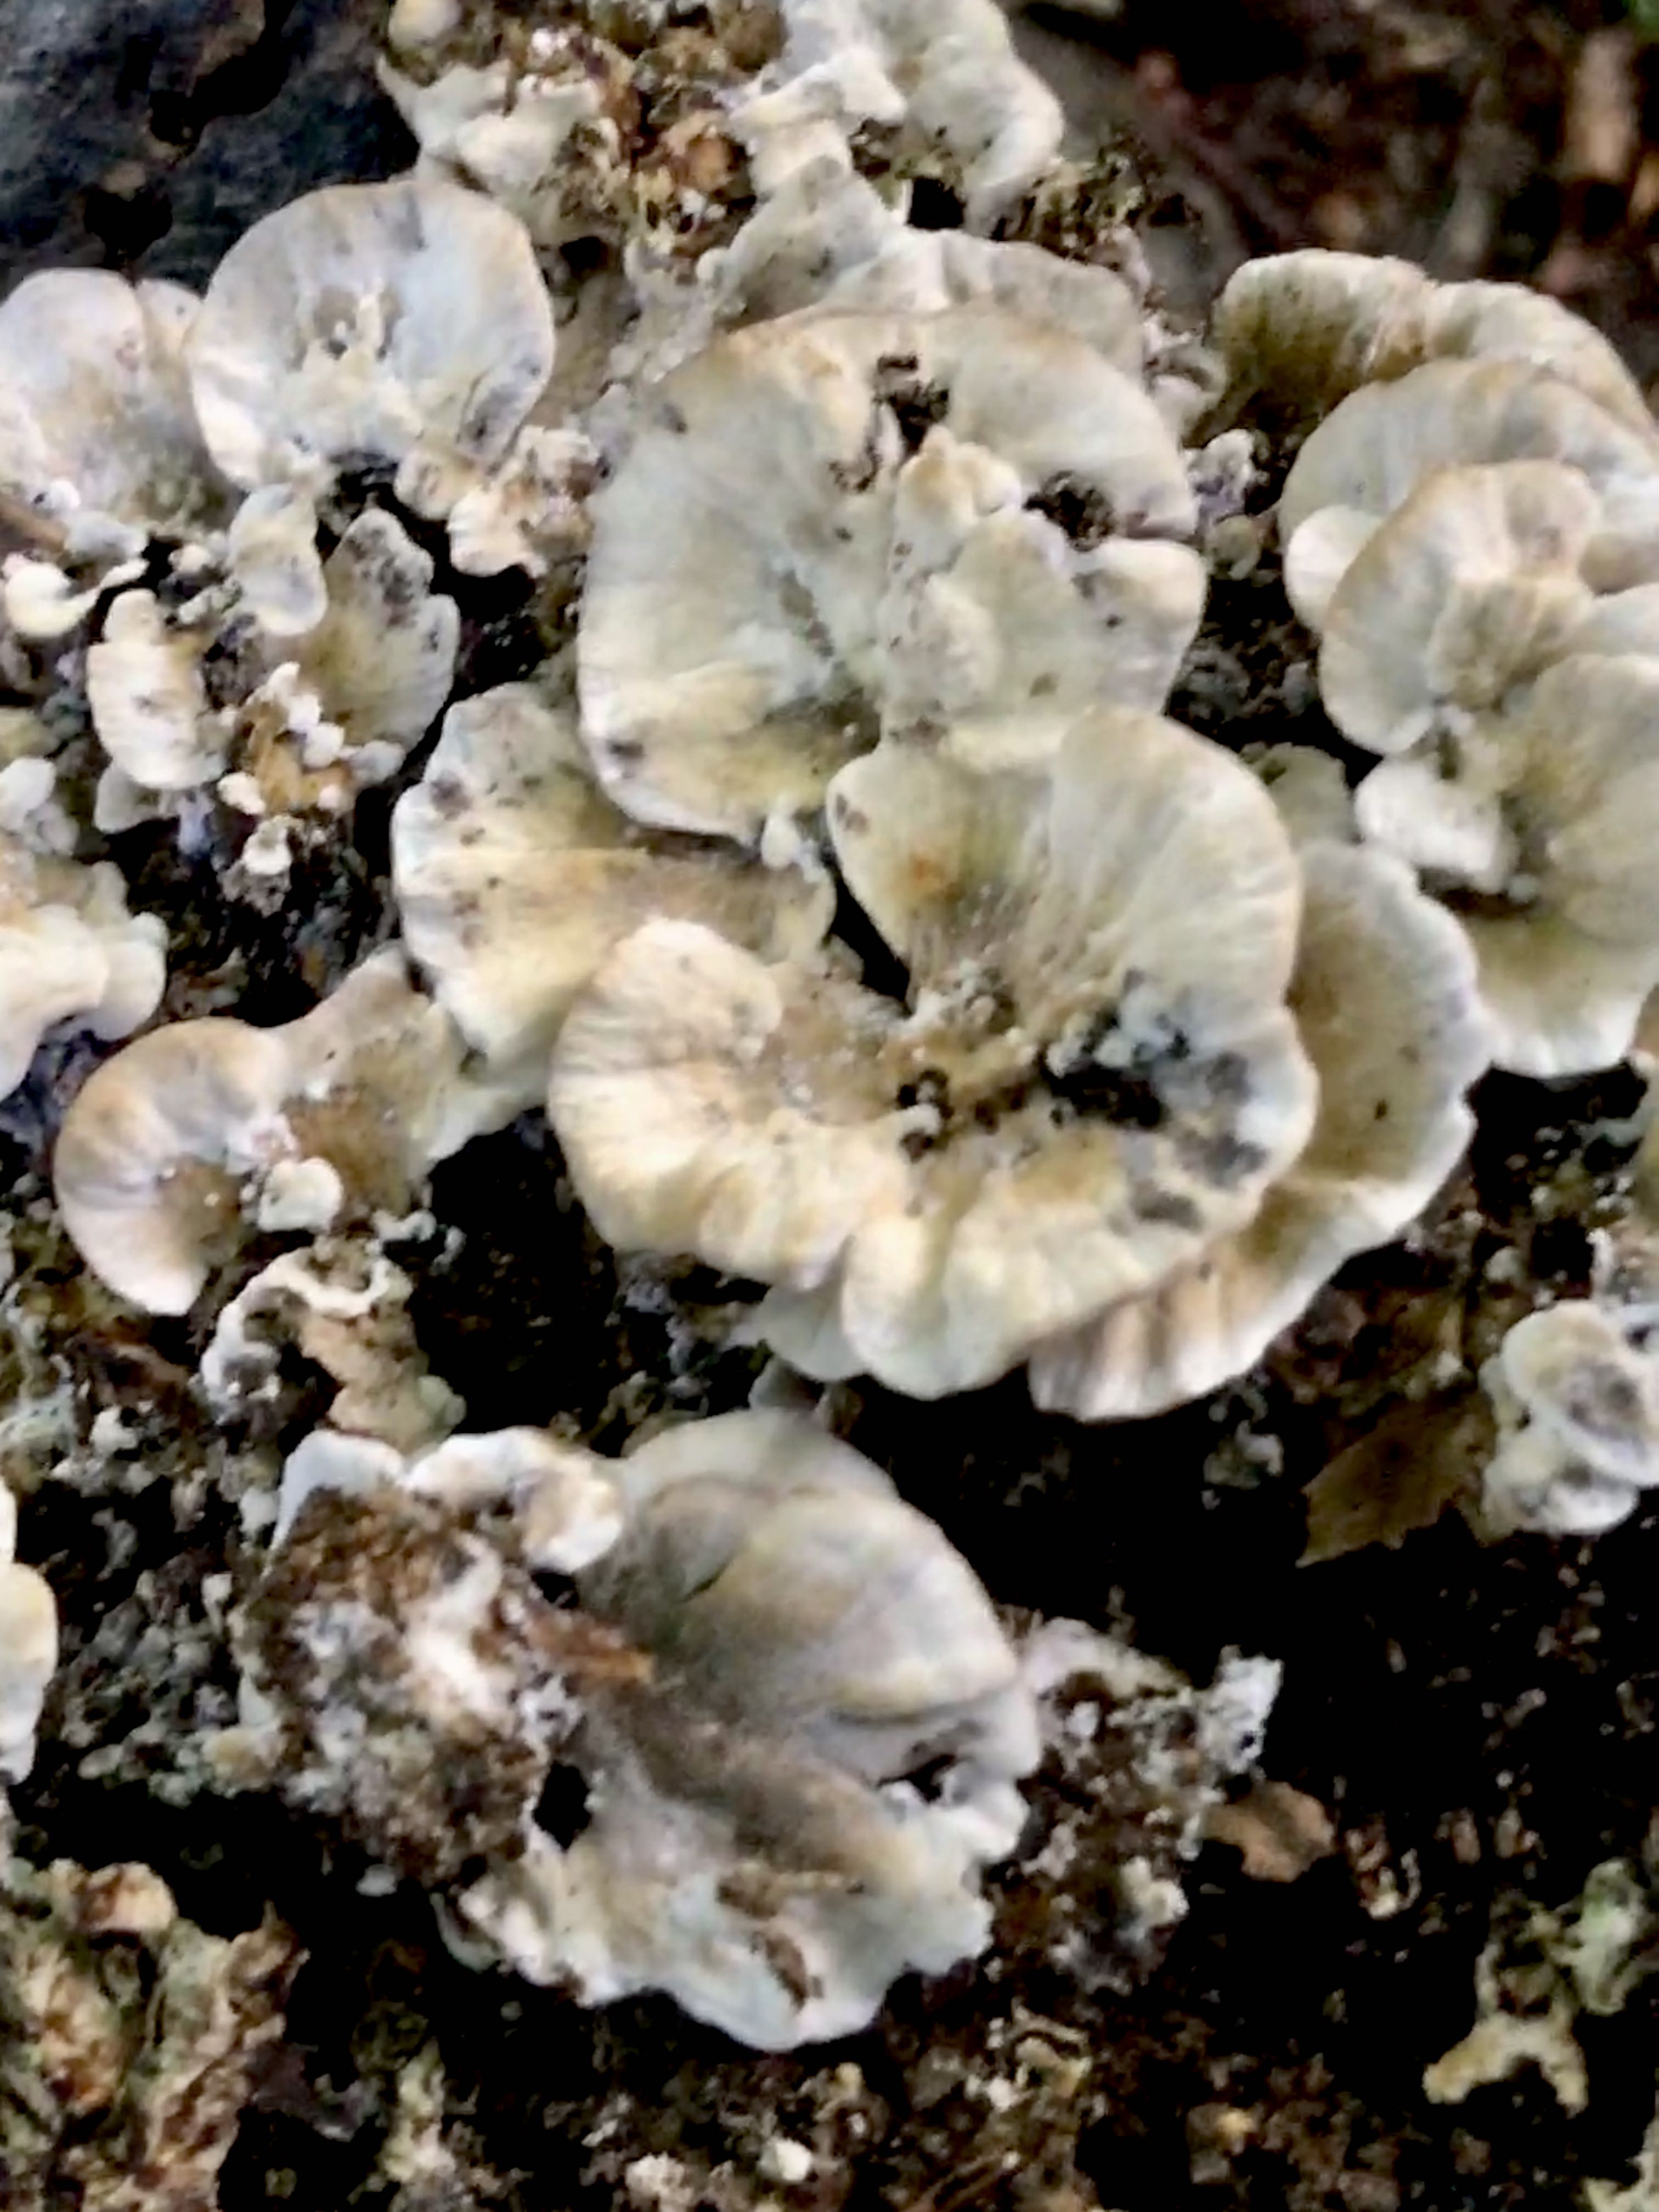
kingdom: Fungi
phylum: Basidiomycota
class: Agaricomycetes
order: Polyporales
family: Phanerochaetaceae
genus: Bjerkandera
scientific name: Bjerkandera adusta
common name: sveden sodporesvamp
